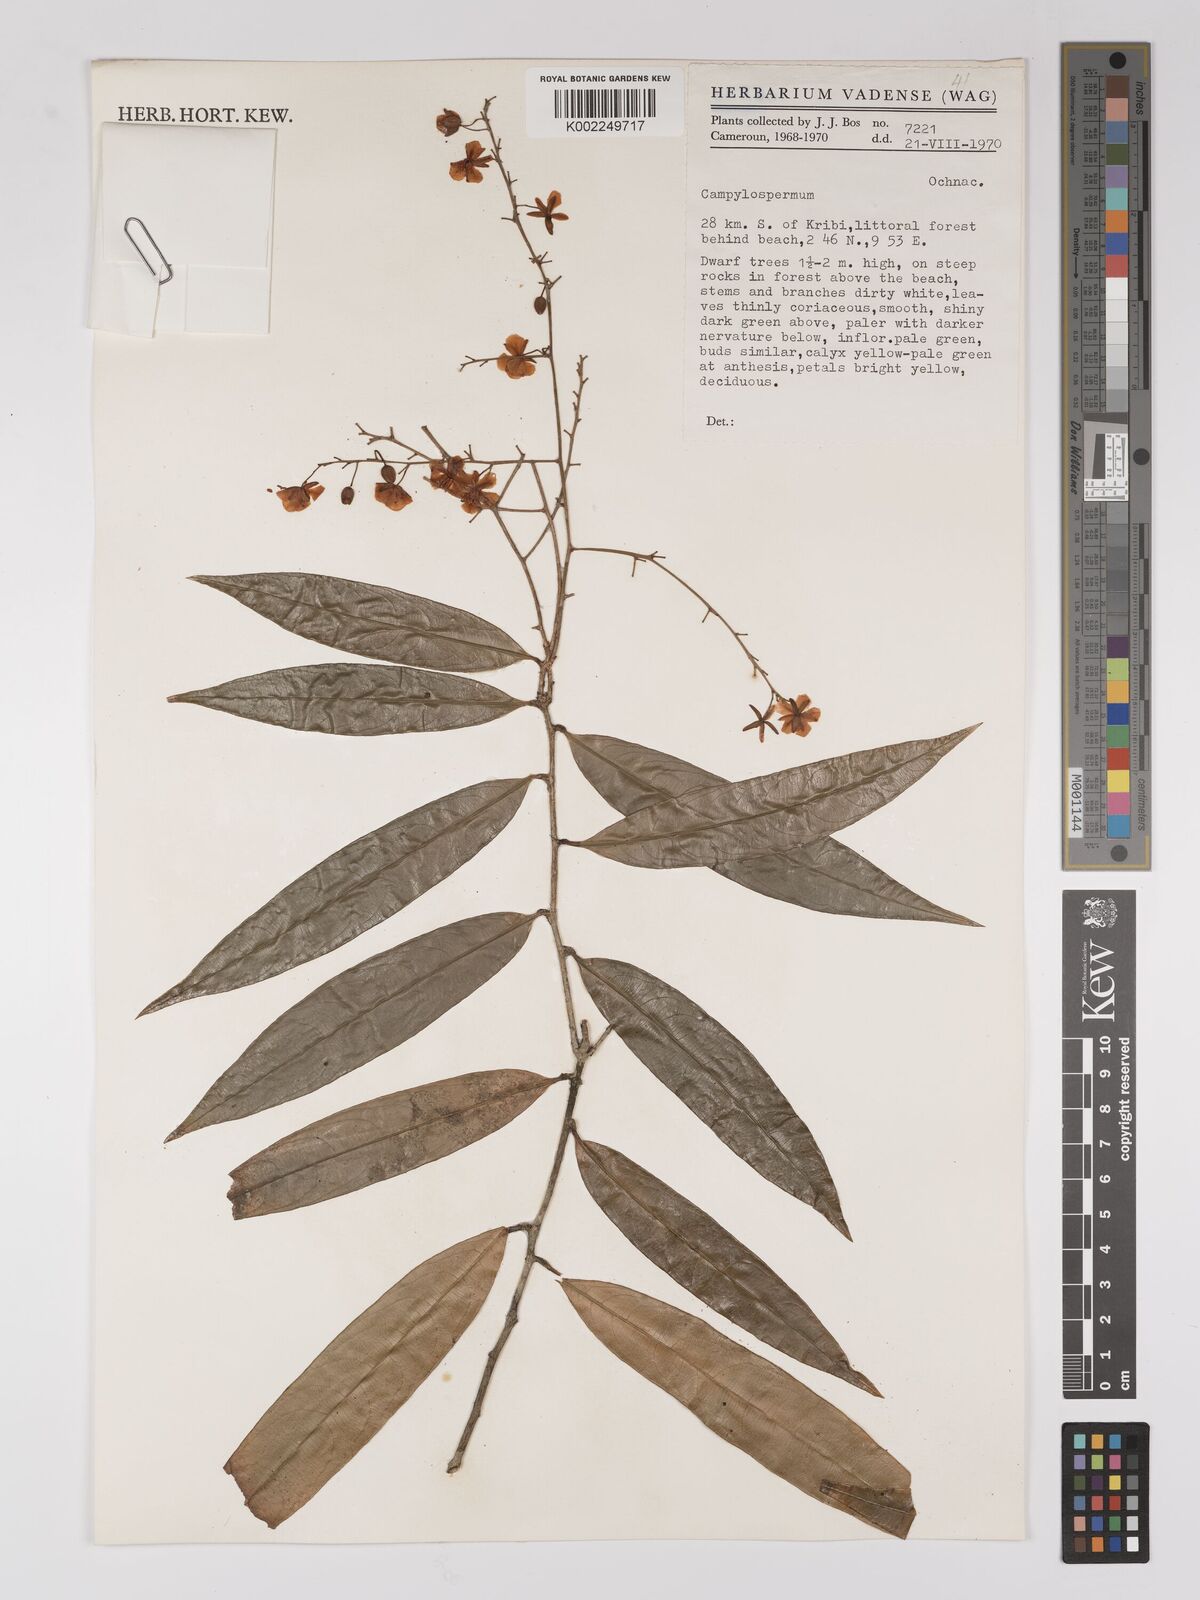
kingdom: Plantae
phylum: Tracheophyta
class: Magnoliopsida
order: Malpighiales
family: Ochnaceae
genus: Campylospermum
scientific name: Campylospermum
